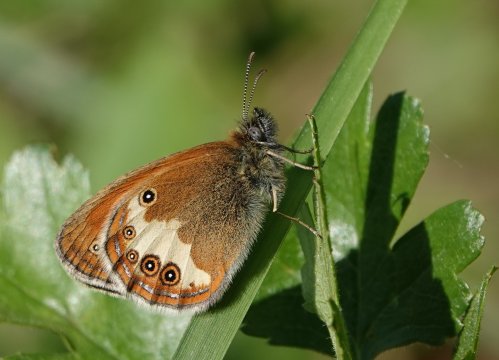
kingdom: Animalia
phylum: Arthropoda
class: Insecta
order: Lepidoptera
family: Nymphalidae
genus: Coenonympha
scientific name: Coenonympha arcania
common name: Pearly Heath
